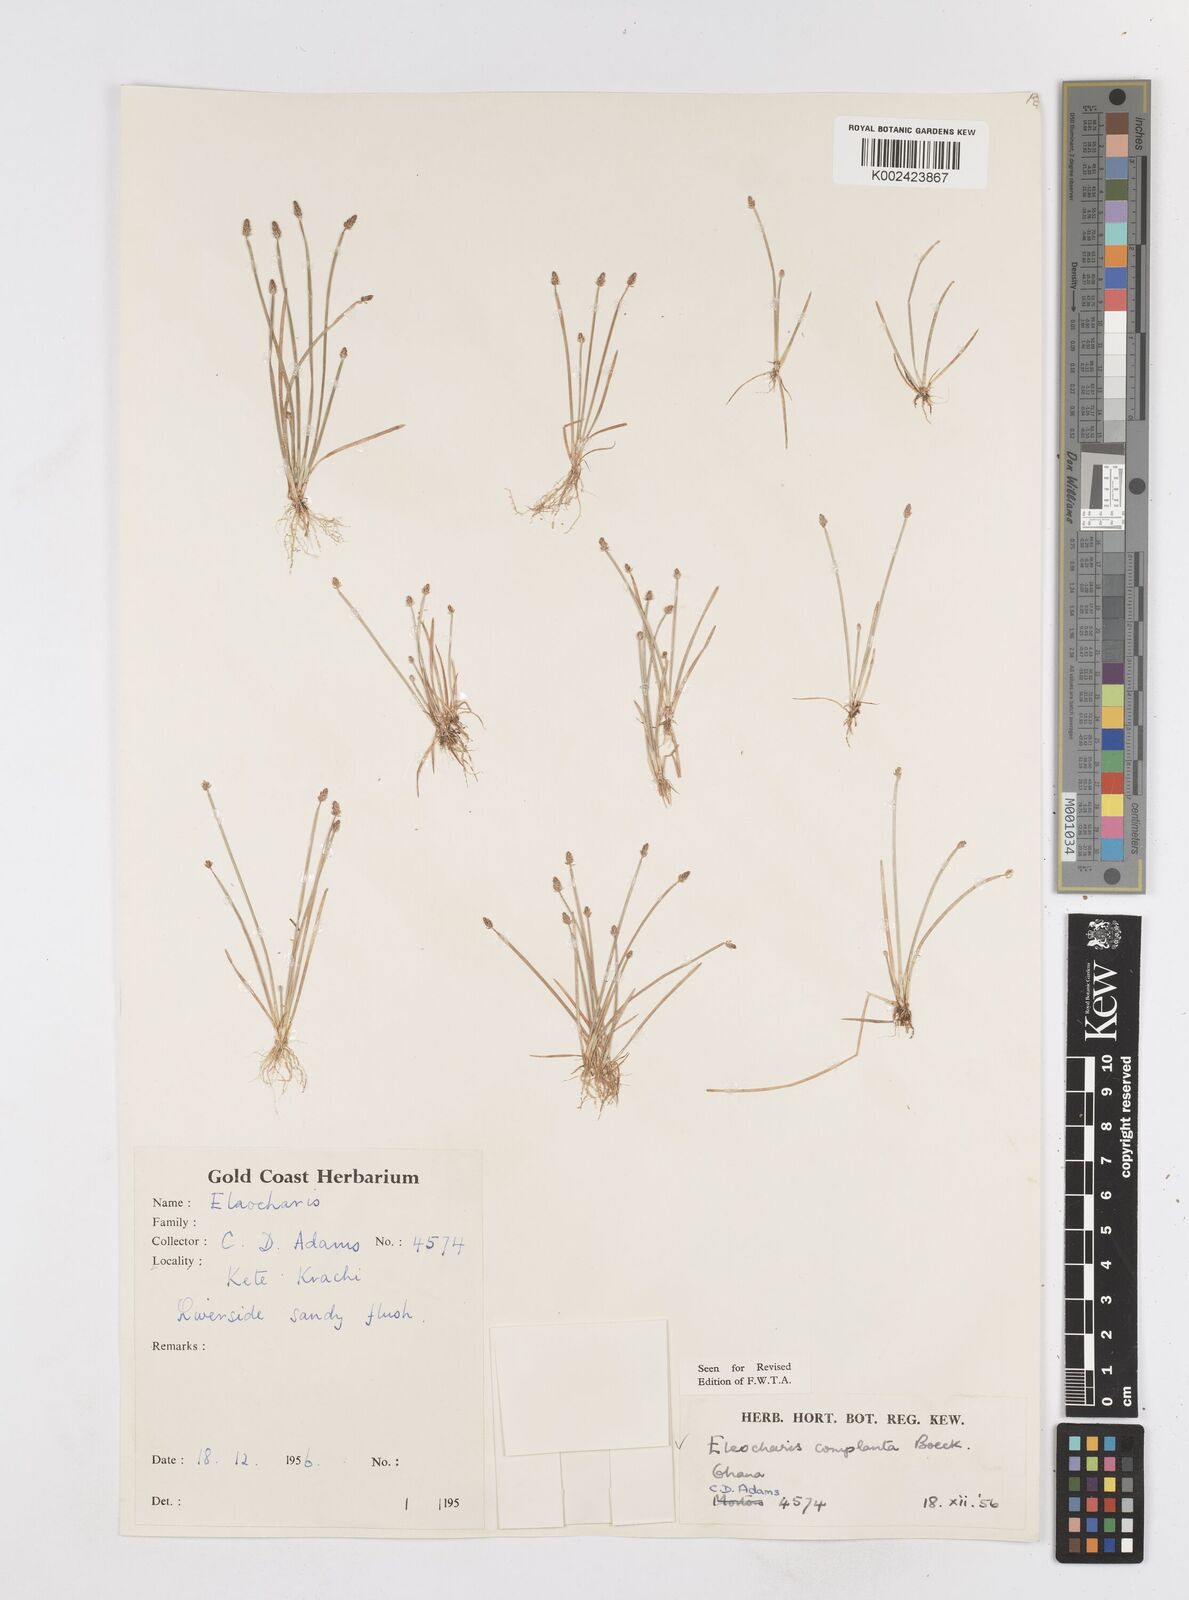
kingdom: Plantae
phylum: Tracheophyta
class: Liliopsida
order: Poales
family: Cyperaceae
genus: Eleocharis
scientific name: Eleocharis complanata
